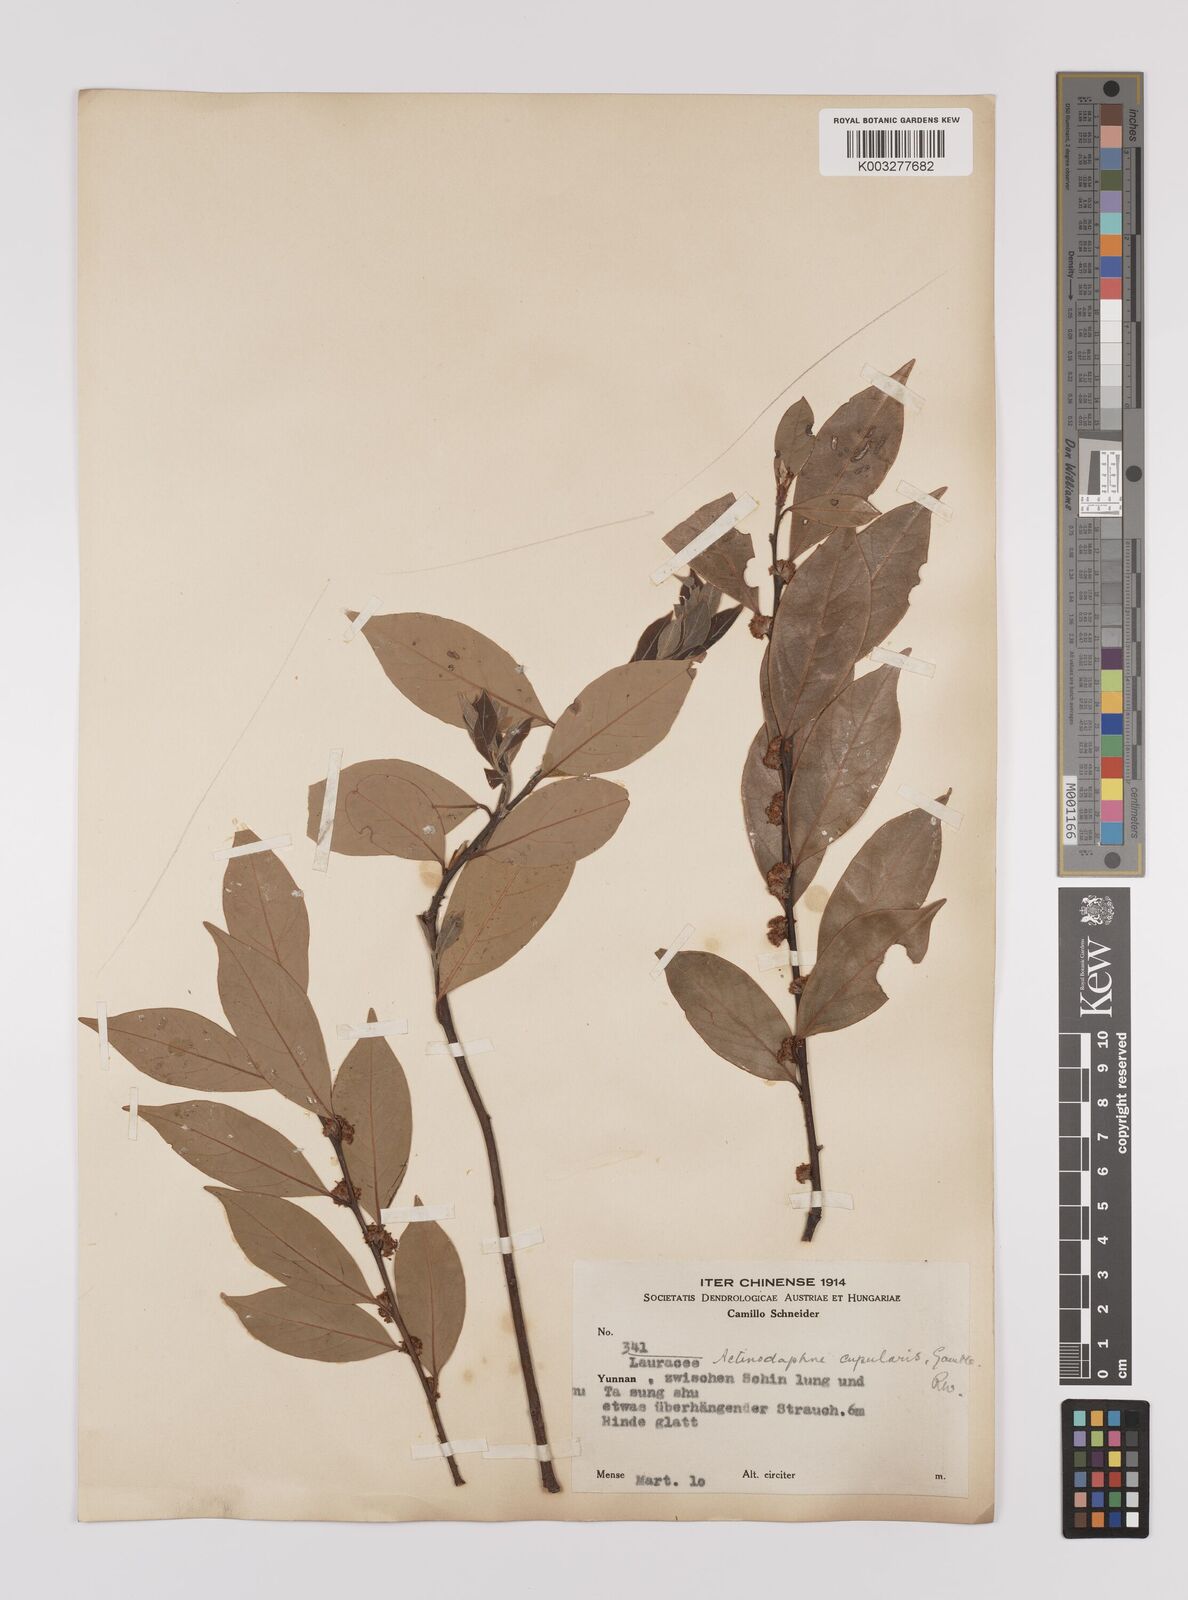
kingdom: Plantae
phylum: Tracheophyta
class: Magnoliopsida
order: Laurales
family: Lauraceae
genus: Litsea
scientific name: Litsea rotundifolia
